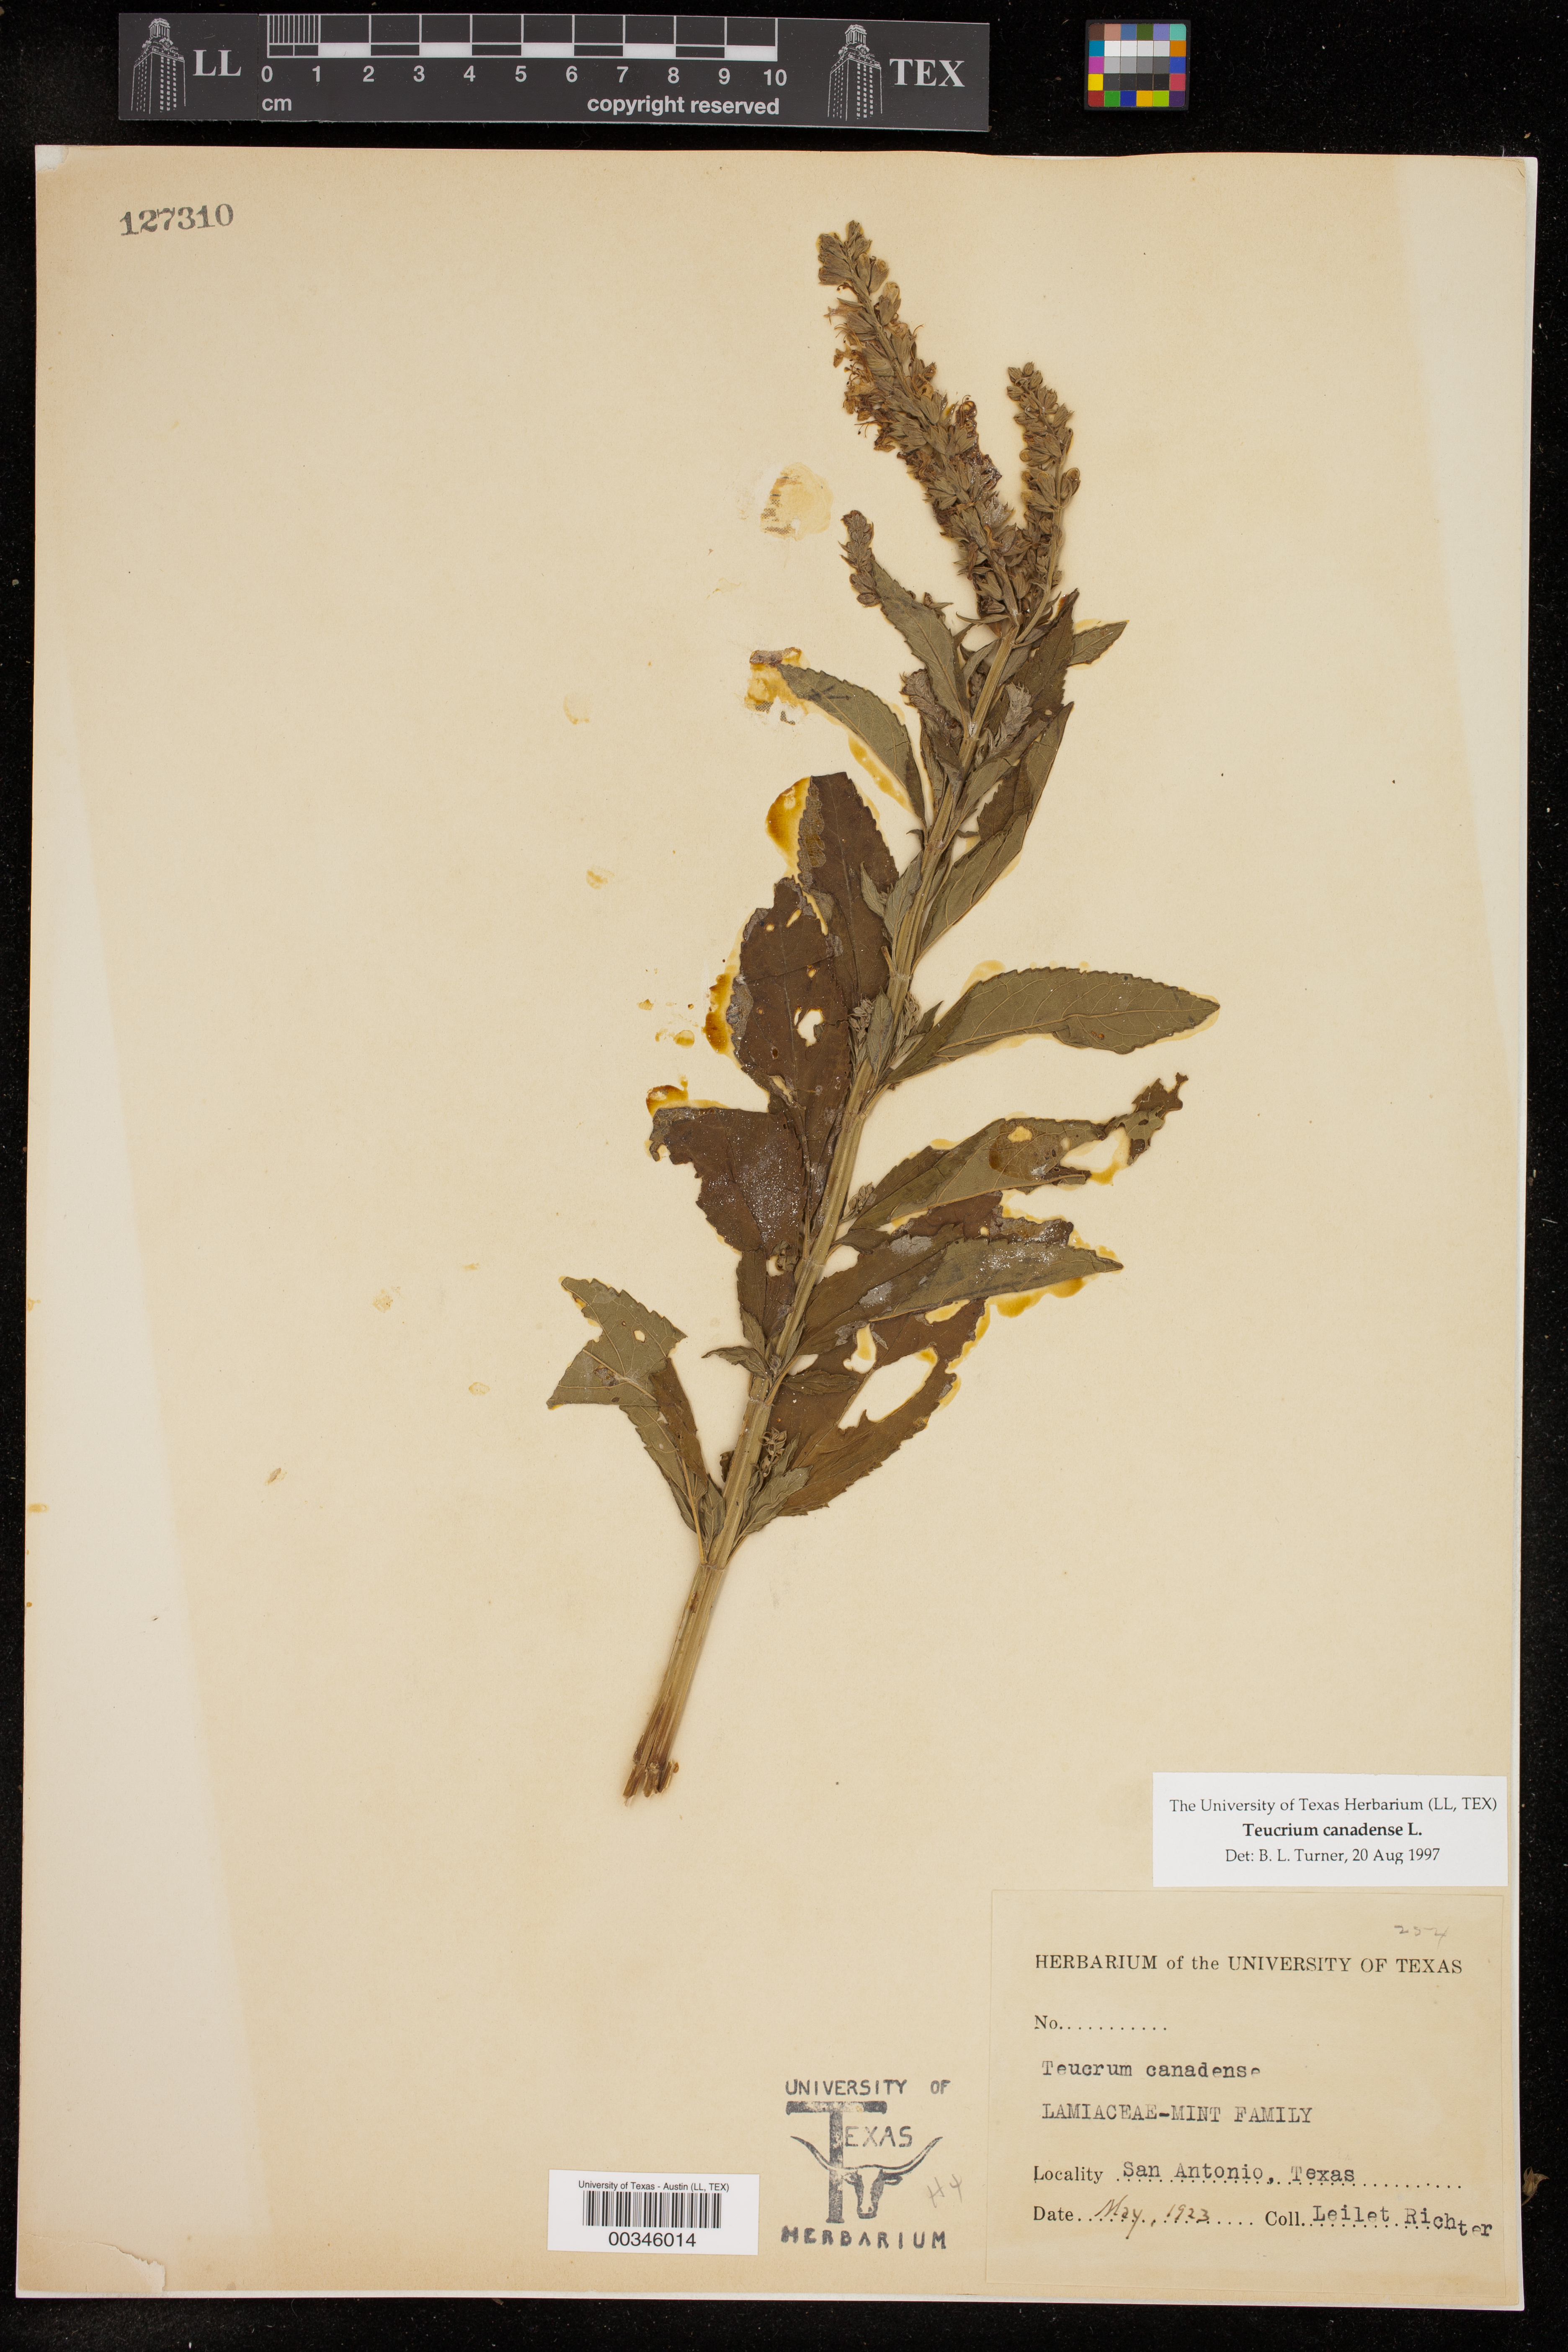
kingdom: Plantae
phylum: Tracheophyta
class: Magnoliopsida
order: Lamiales
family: Lamiaceae
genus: Teucrium
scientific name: Teucrium canadense
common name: American germander
